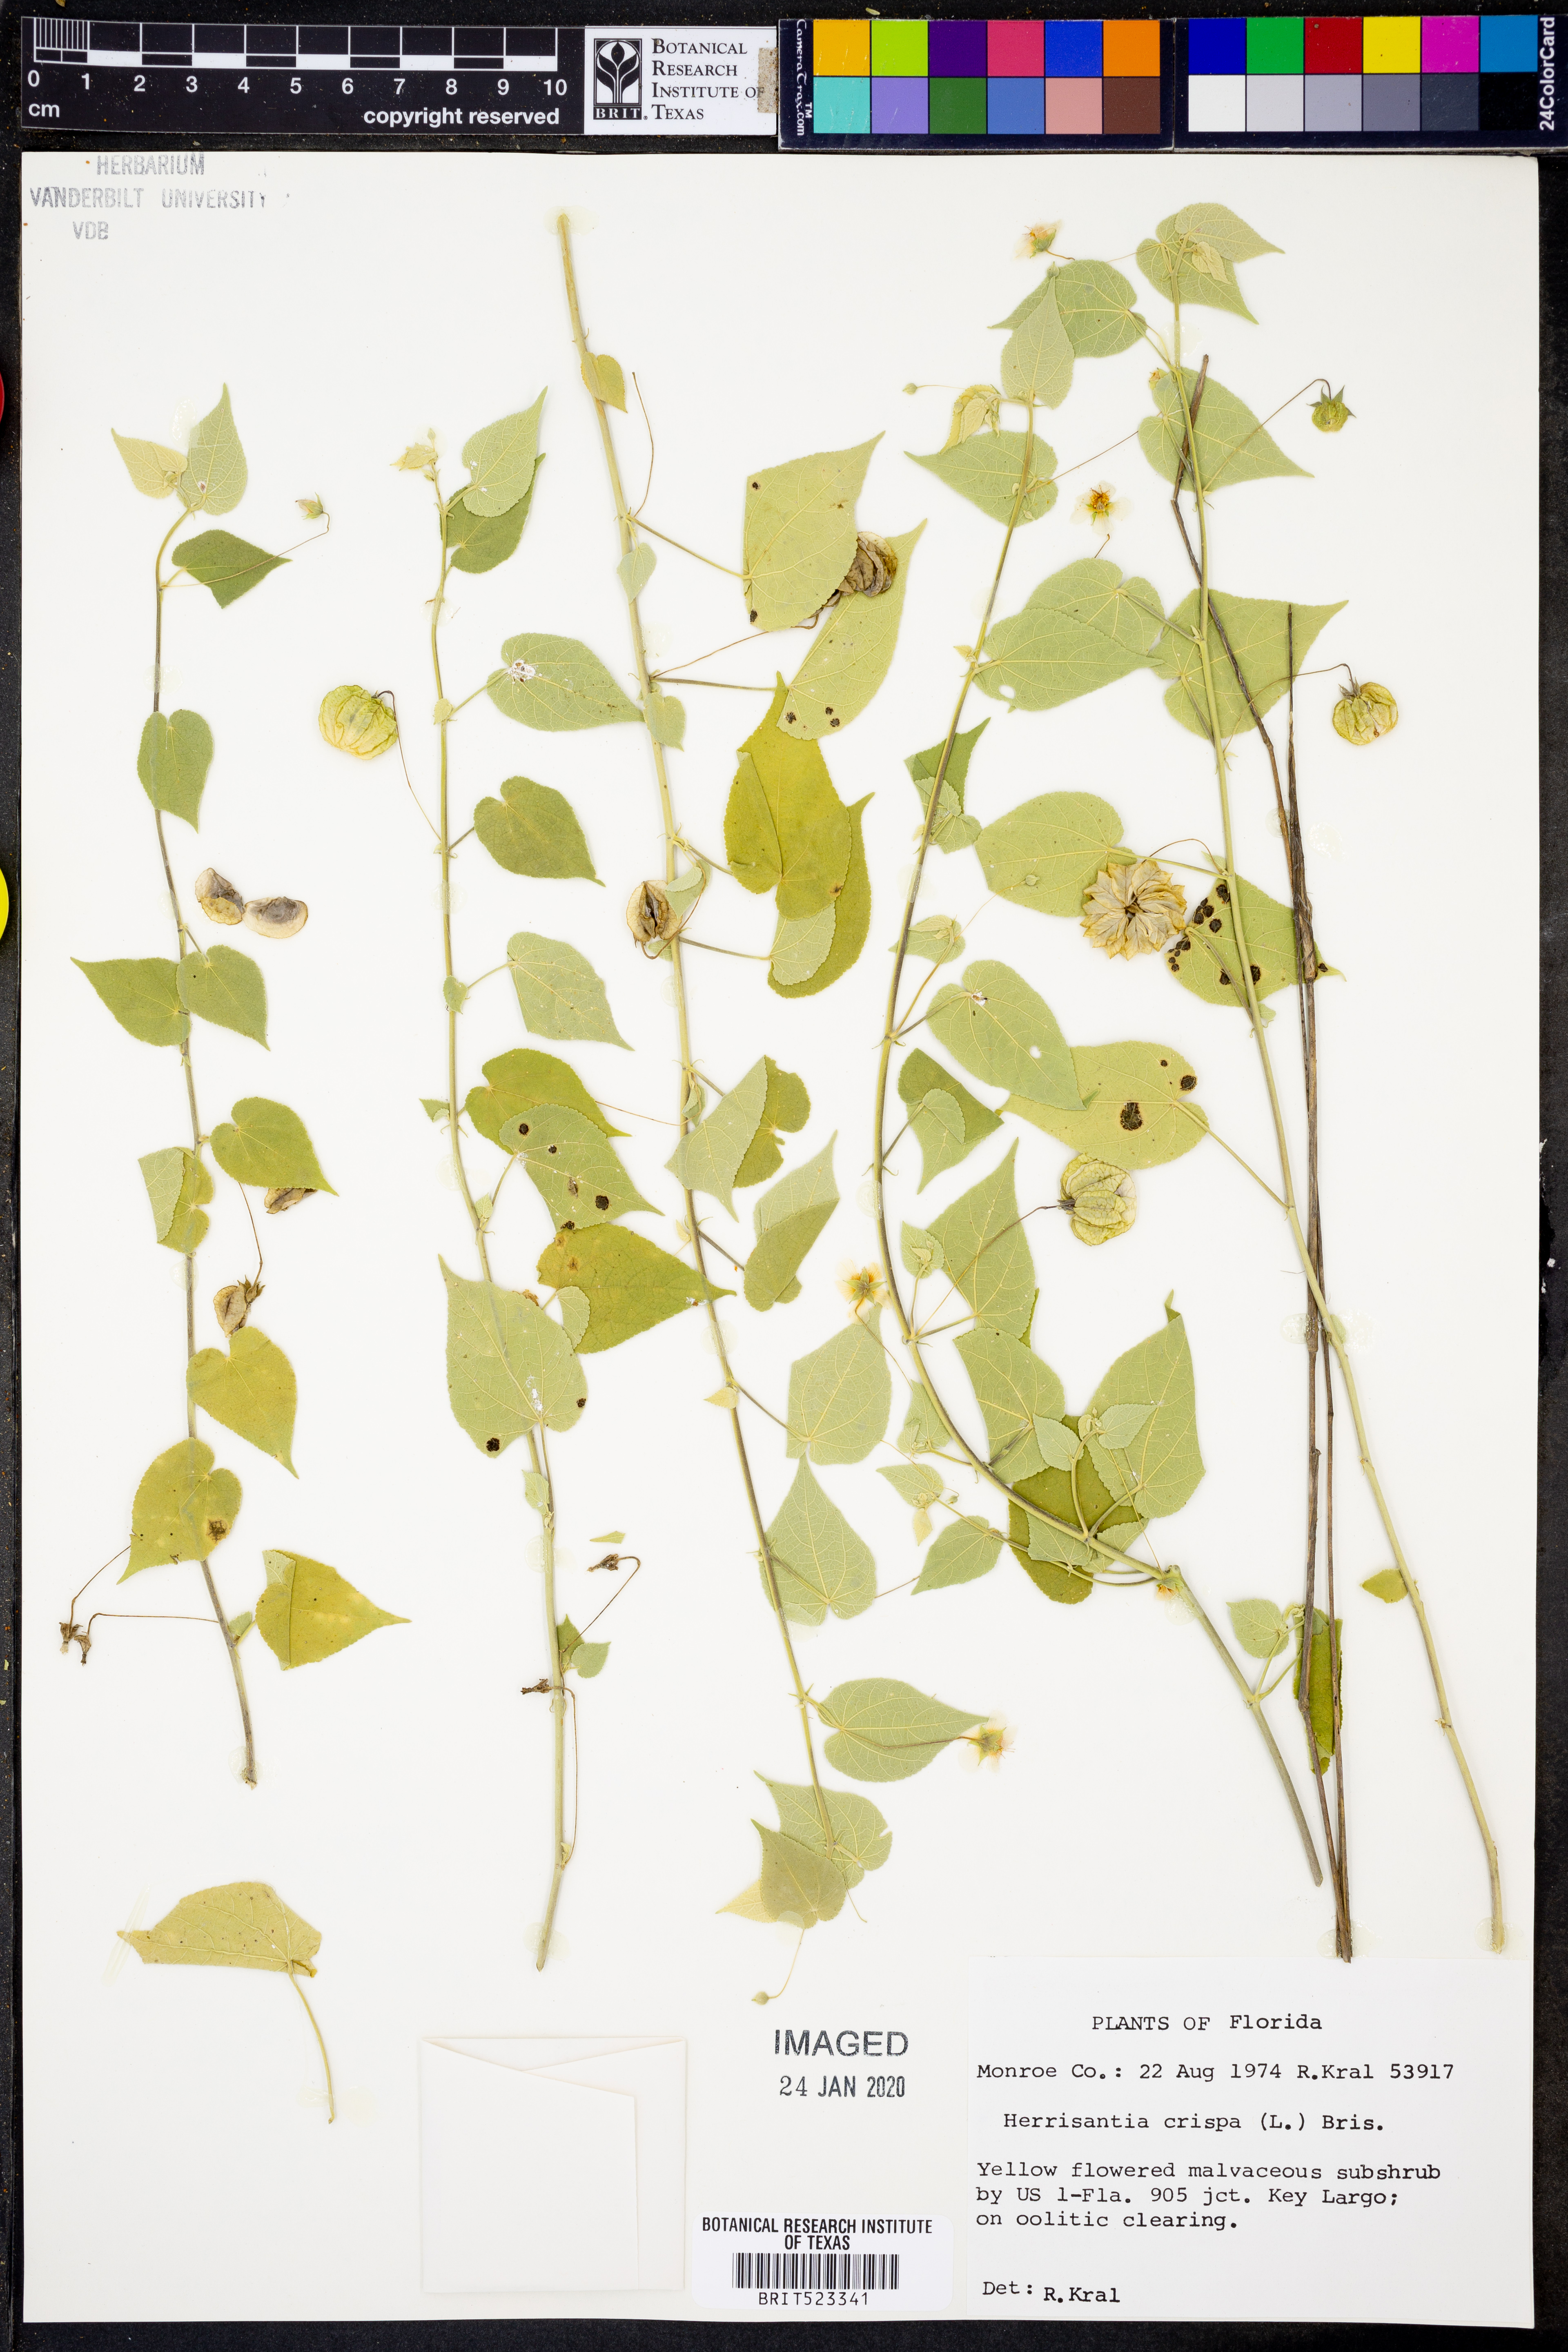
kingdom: Plantae
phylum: Tracheophyta
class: Magnoliopsida
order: Malvales
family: Malvaceae
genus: Herissantia
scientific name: Herissantia crispa
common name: Bladdermallow
